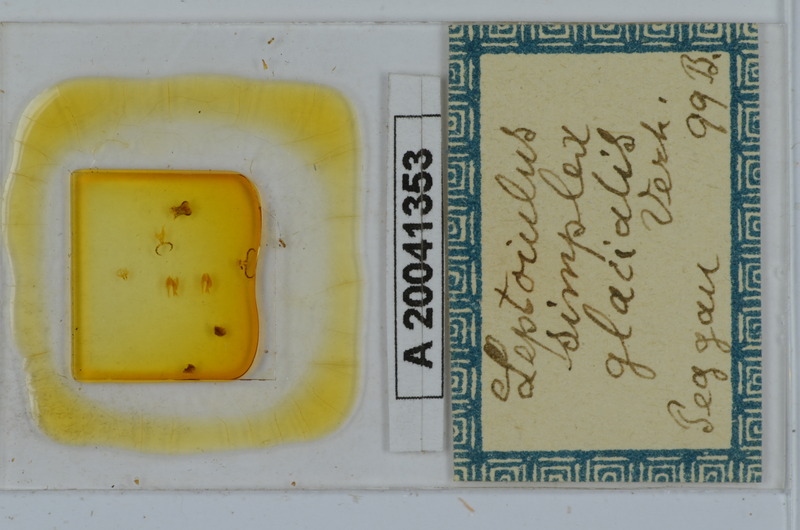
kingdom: Animalia
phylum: Arthropoda
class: Diplopoda
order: Julida
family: Julidae
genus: Leptoiulus
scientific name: Leptoiulus simplex
